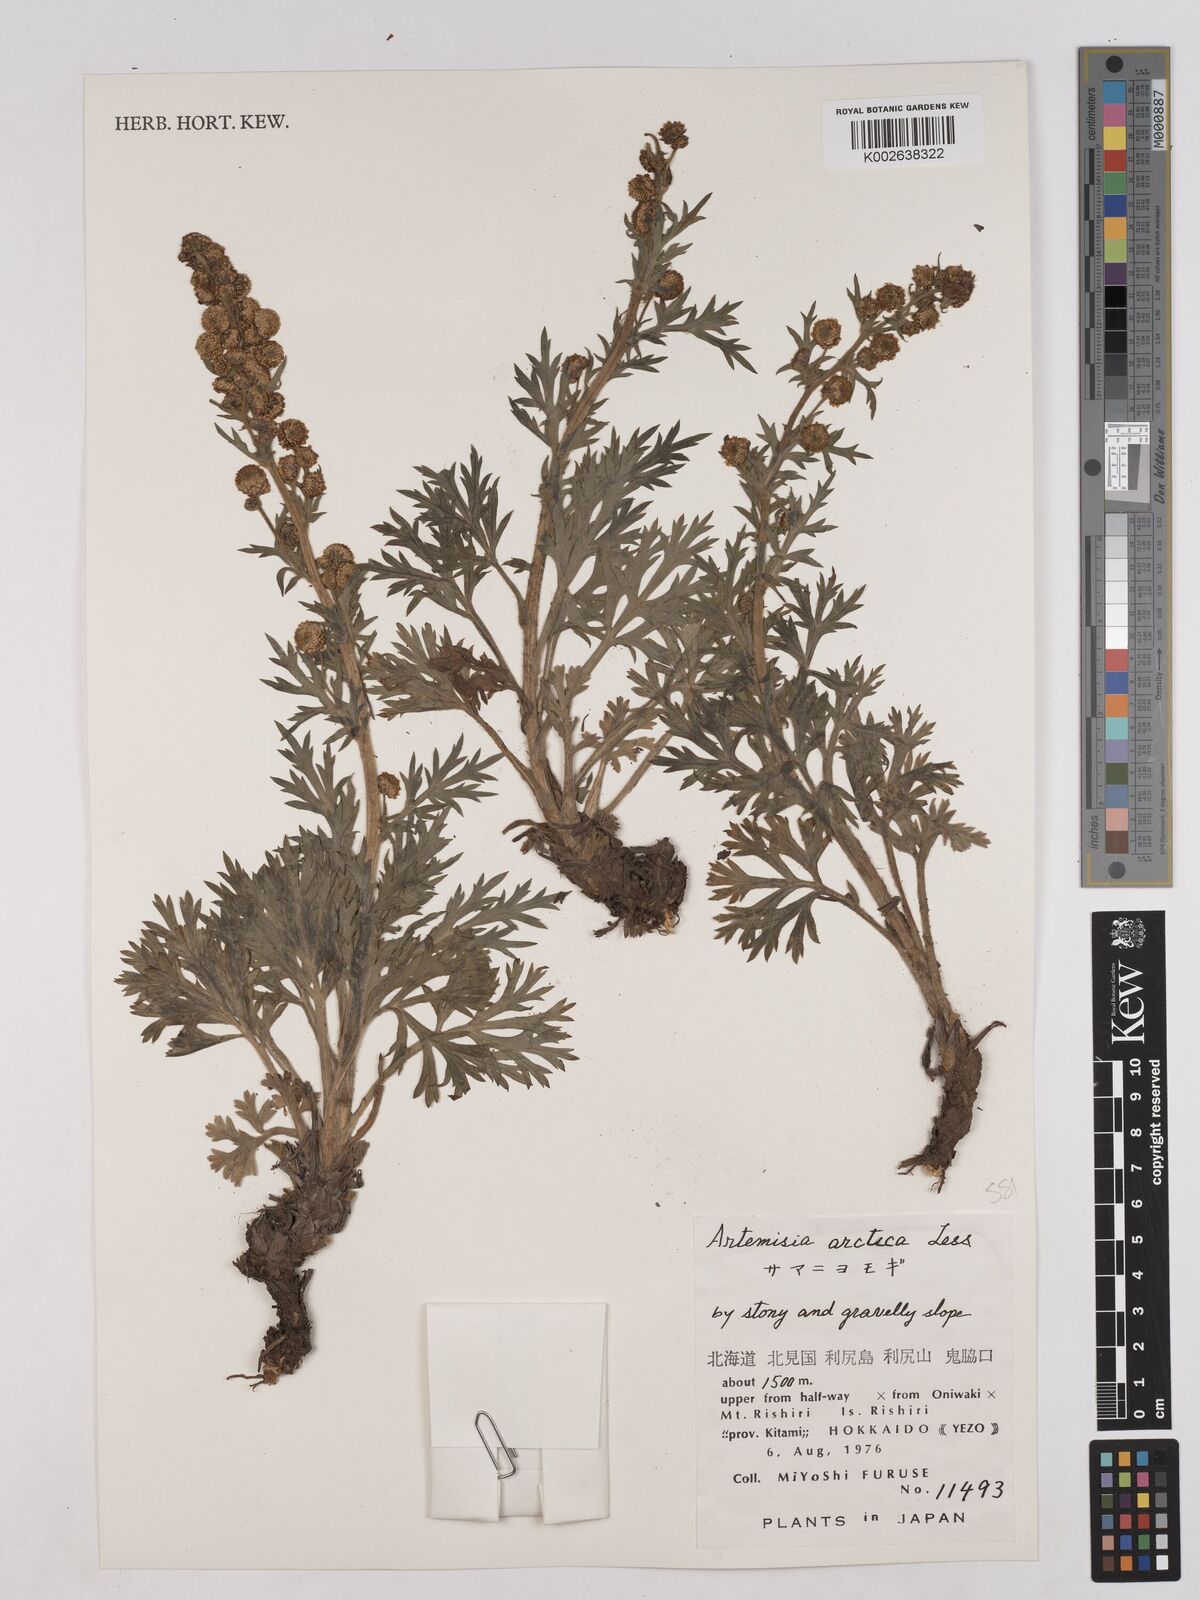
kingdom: Plantae
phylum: Tracheophyta
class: Magnoliopsida
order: Asterales
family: Asteraceae
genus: Artemisia
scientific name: Artemisia norvegica
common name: Norwegian mugwort
